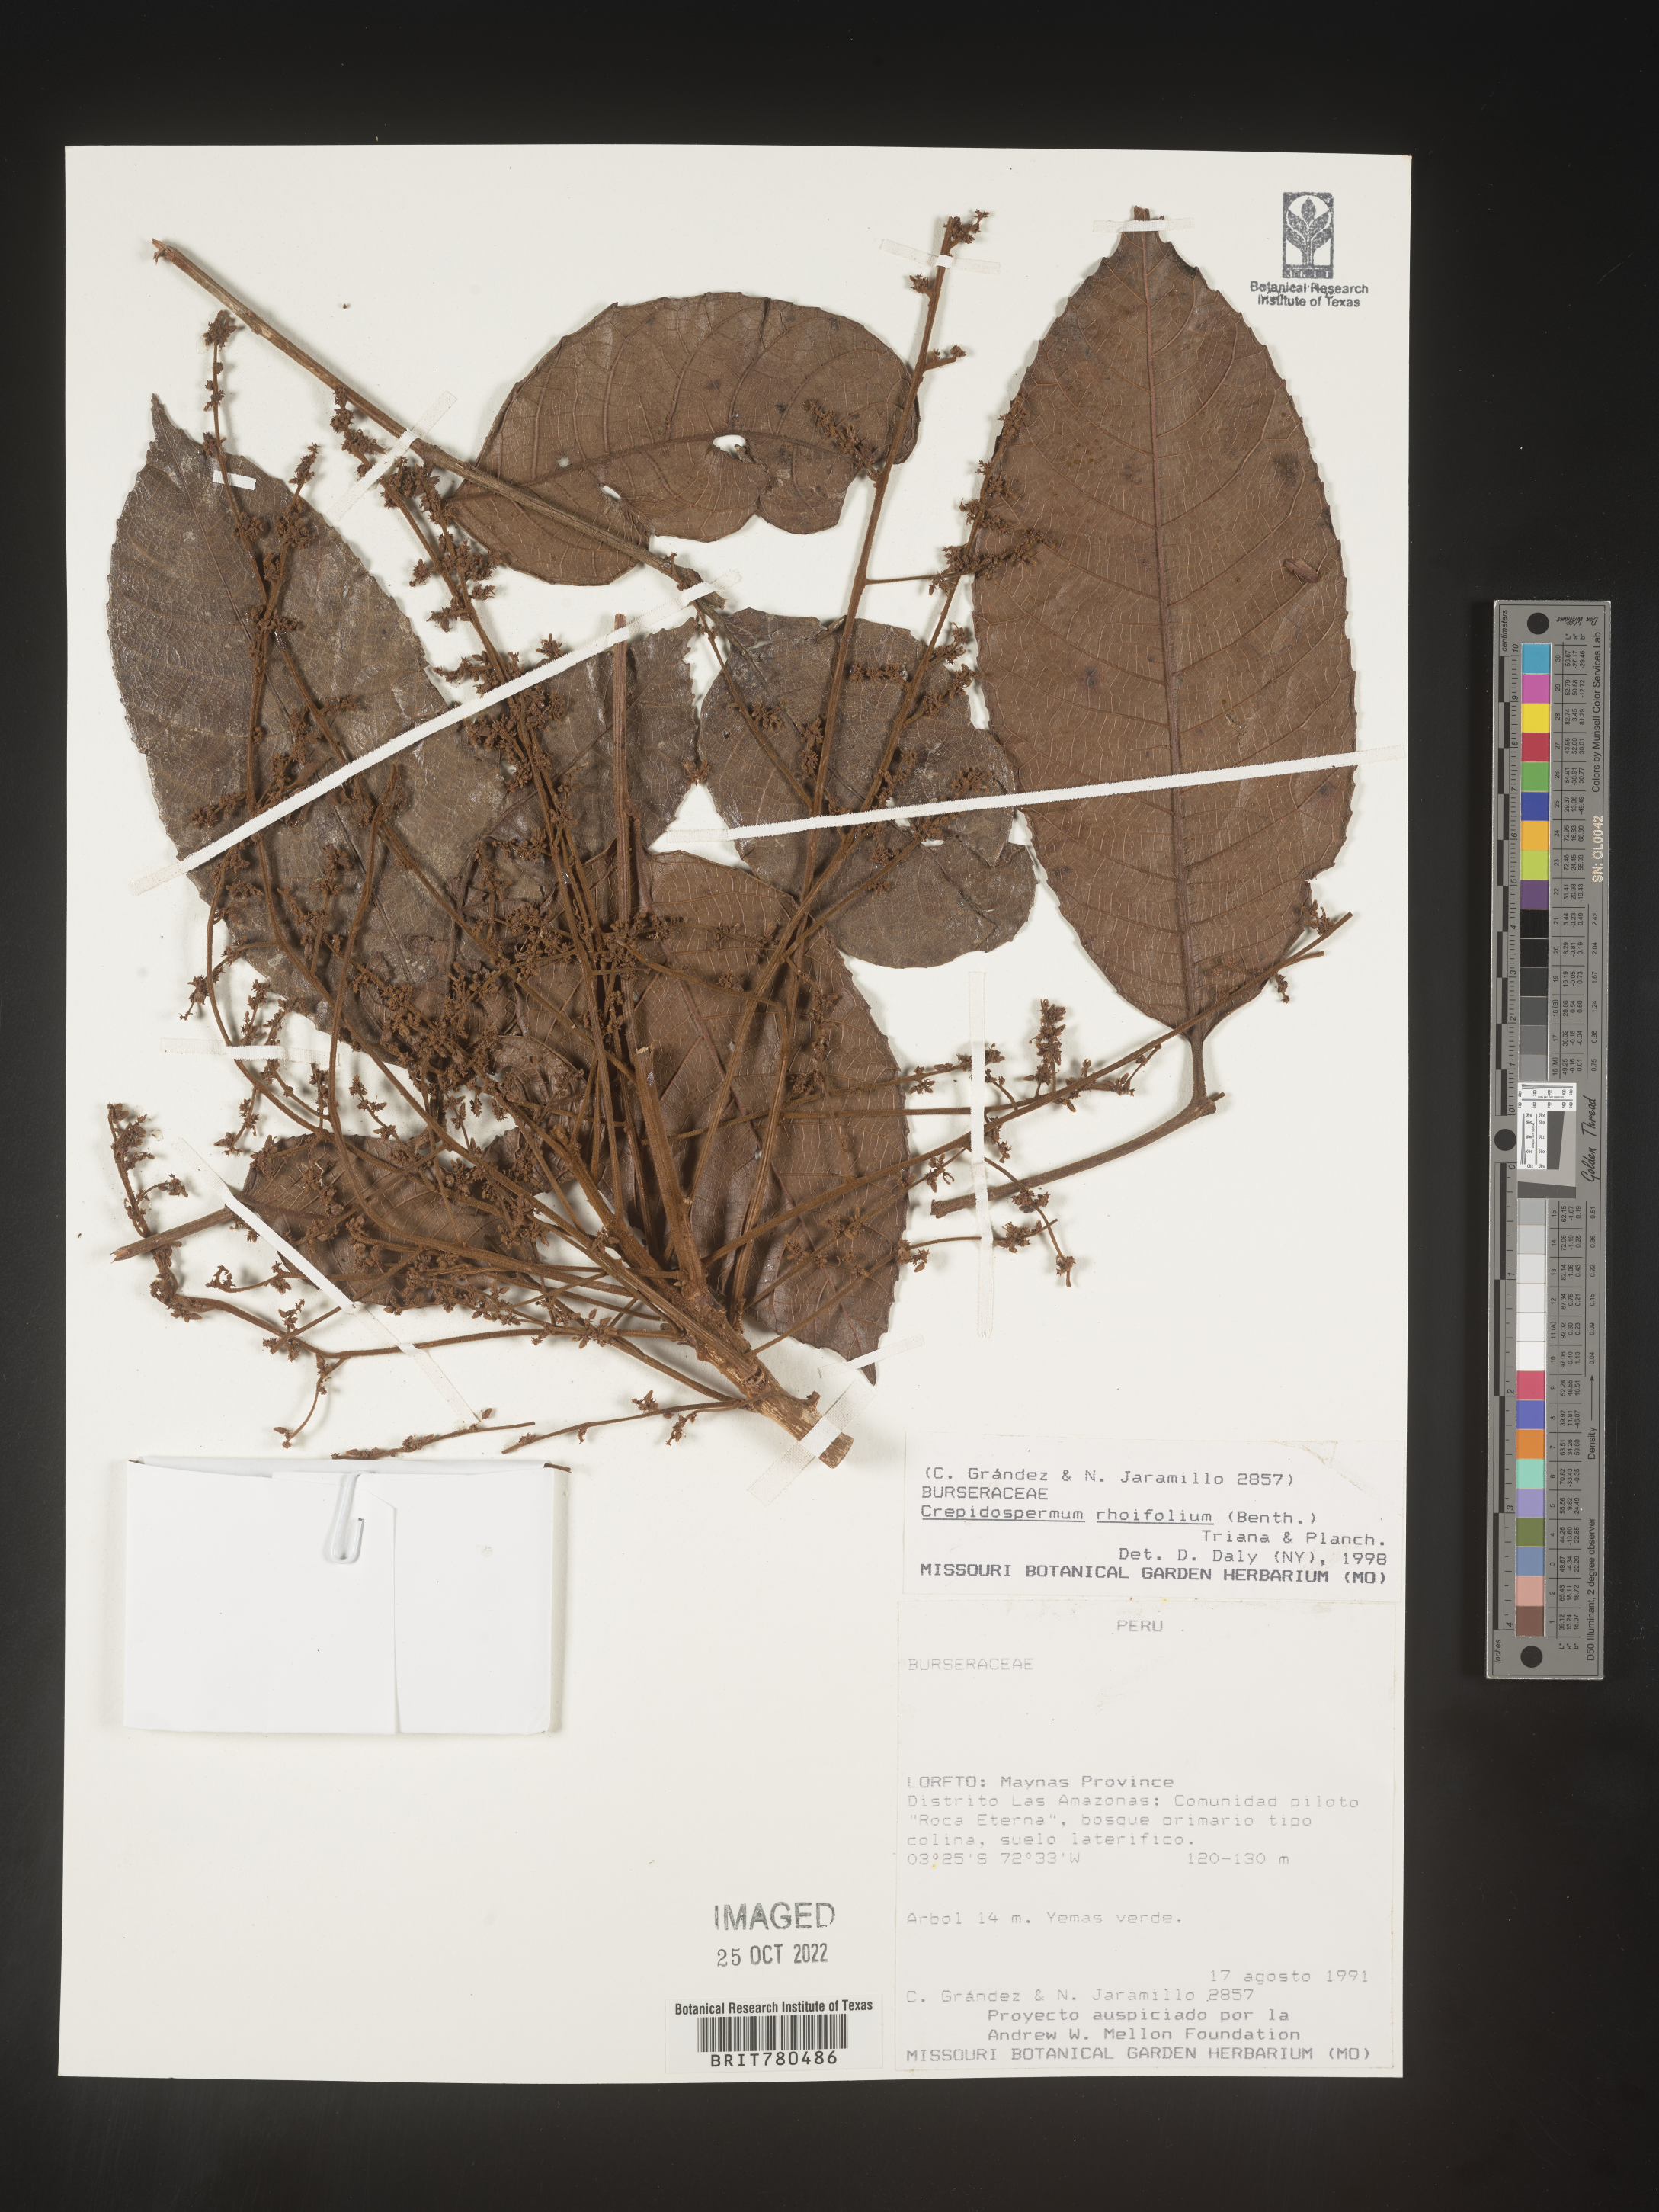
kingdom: Plantae
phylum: Tracheophyta
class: Magnoliopsida
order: Sapindales
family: Burseraceae
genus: Crepidospermum
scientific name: Crepidospermum
